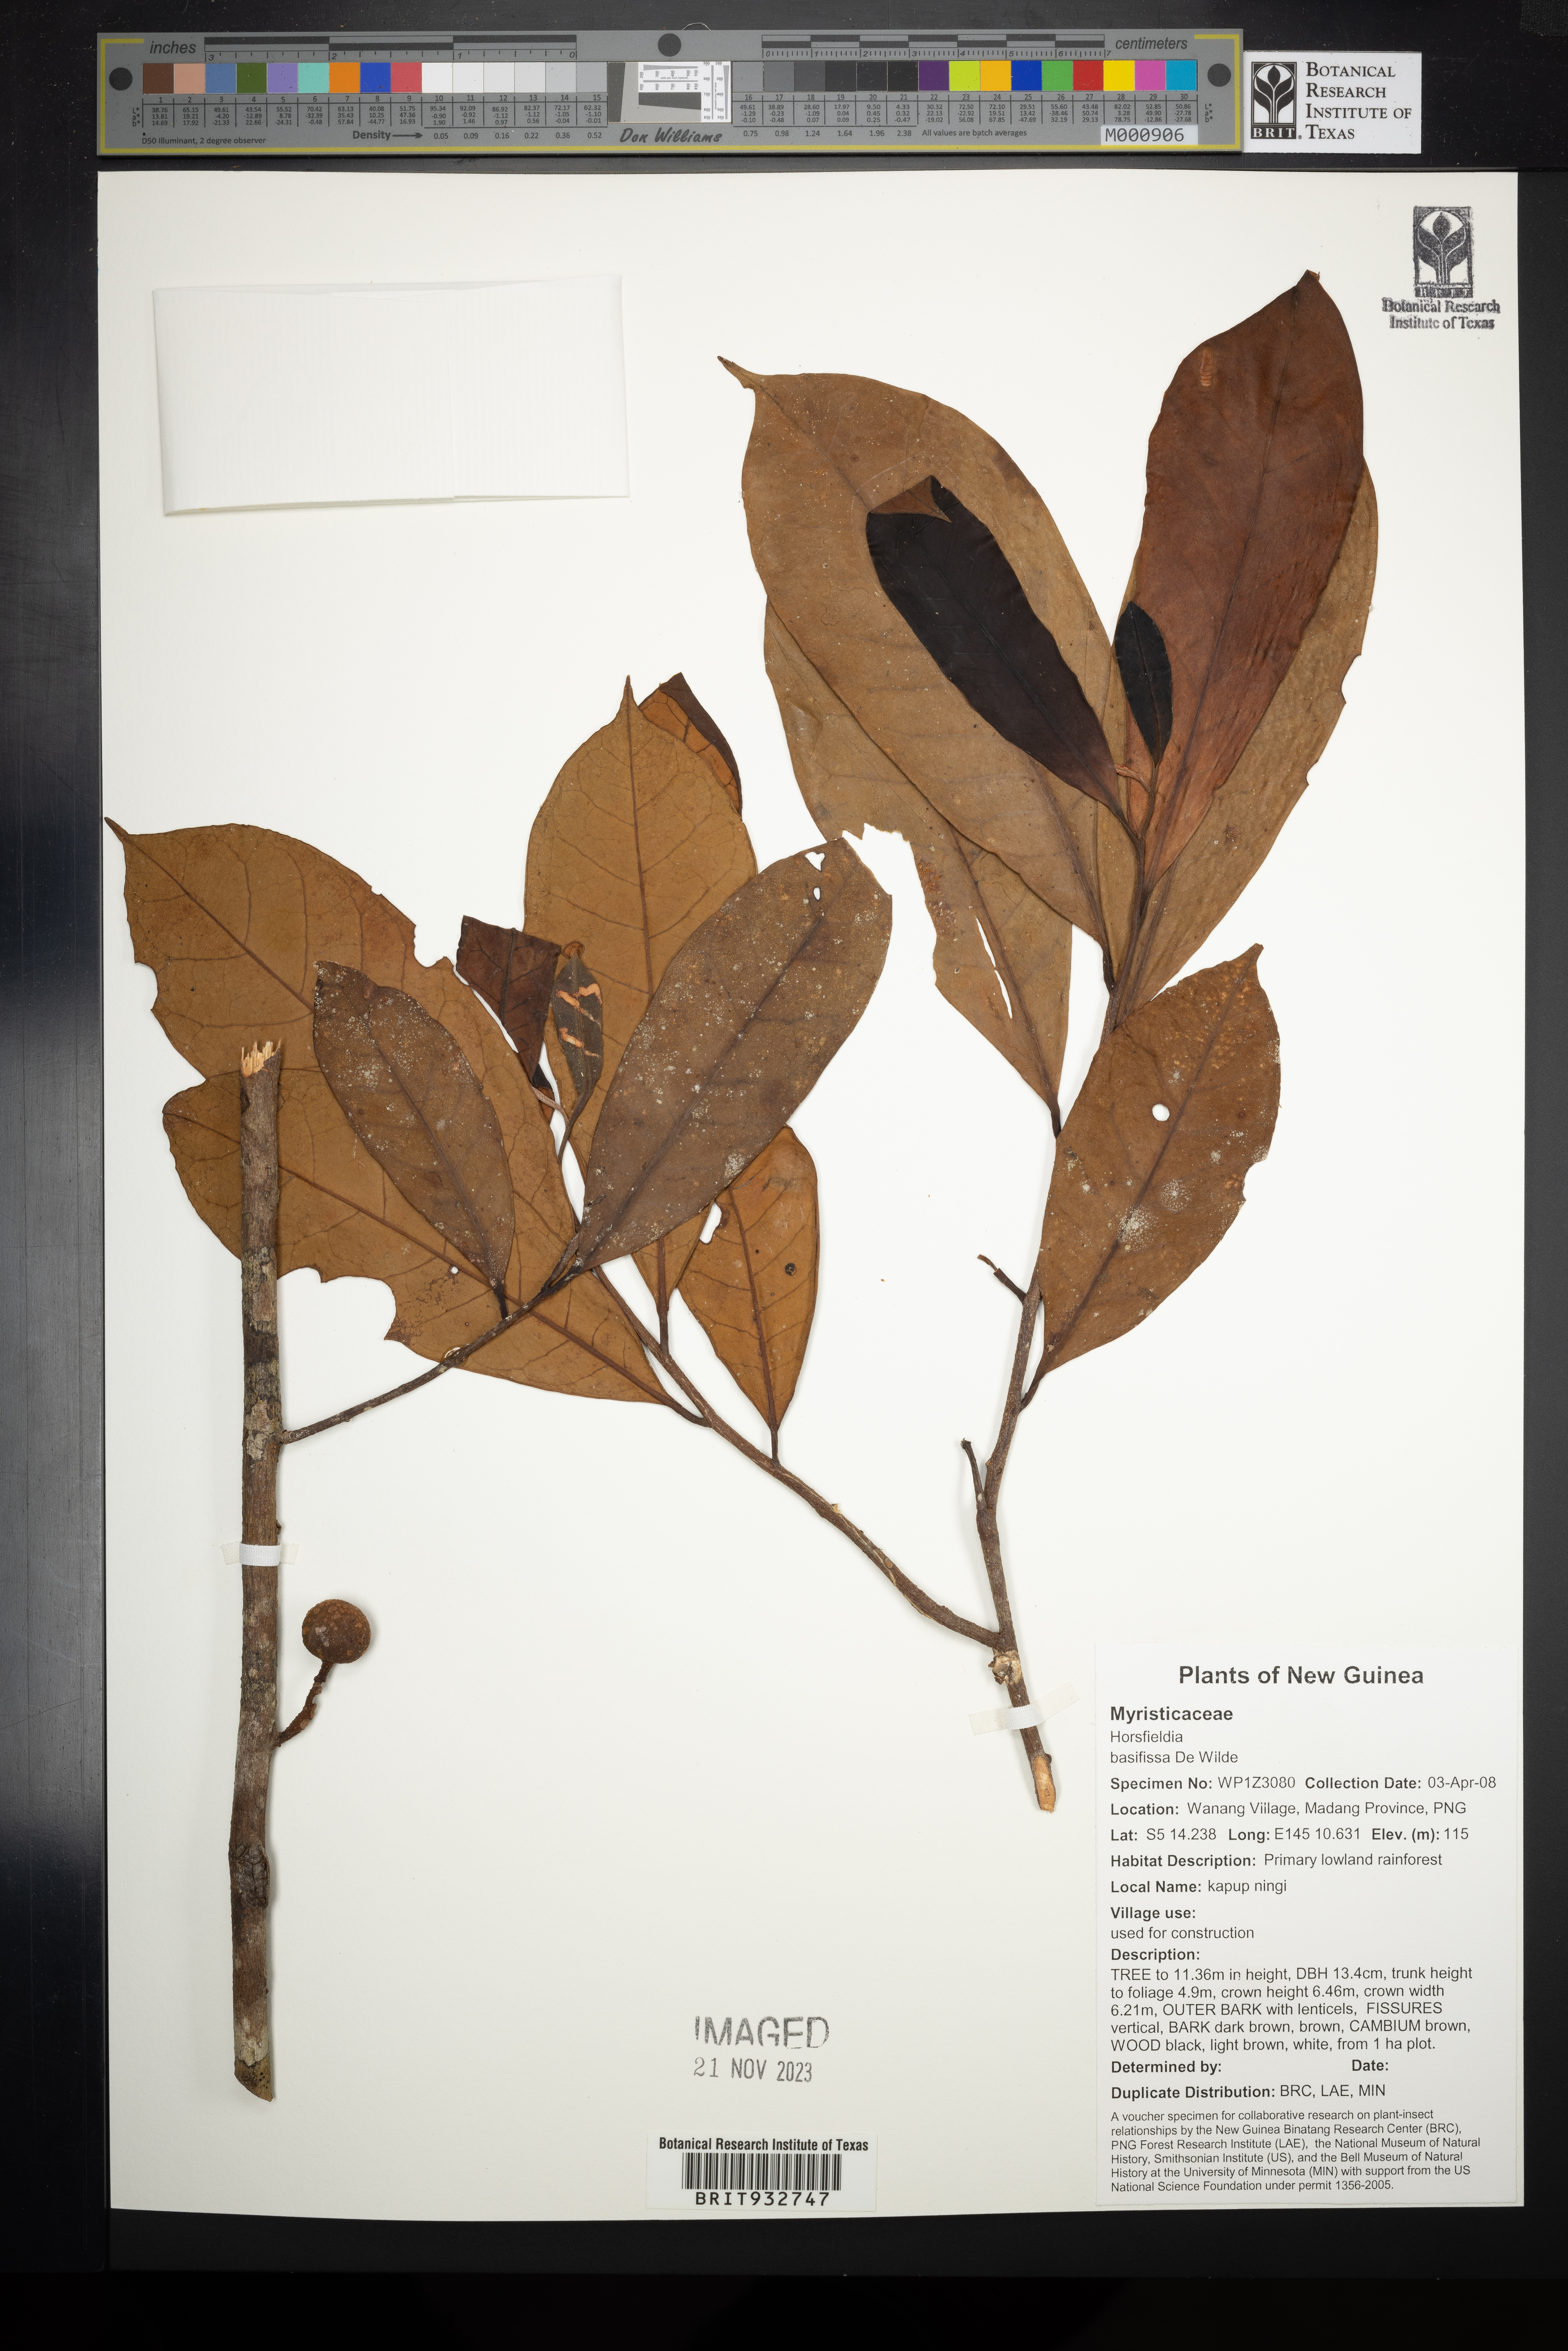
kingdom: Plantae
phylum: Tracheophyta
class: Magnoliopsida
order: Magnoliales
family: Myristicaceae
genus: Horsfieldia
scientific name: Horsfieldia
